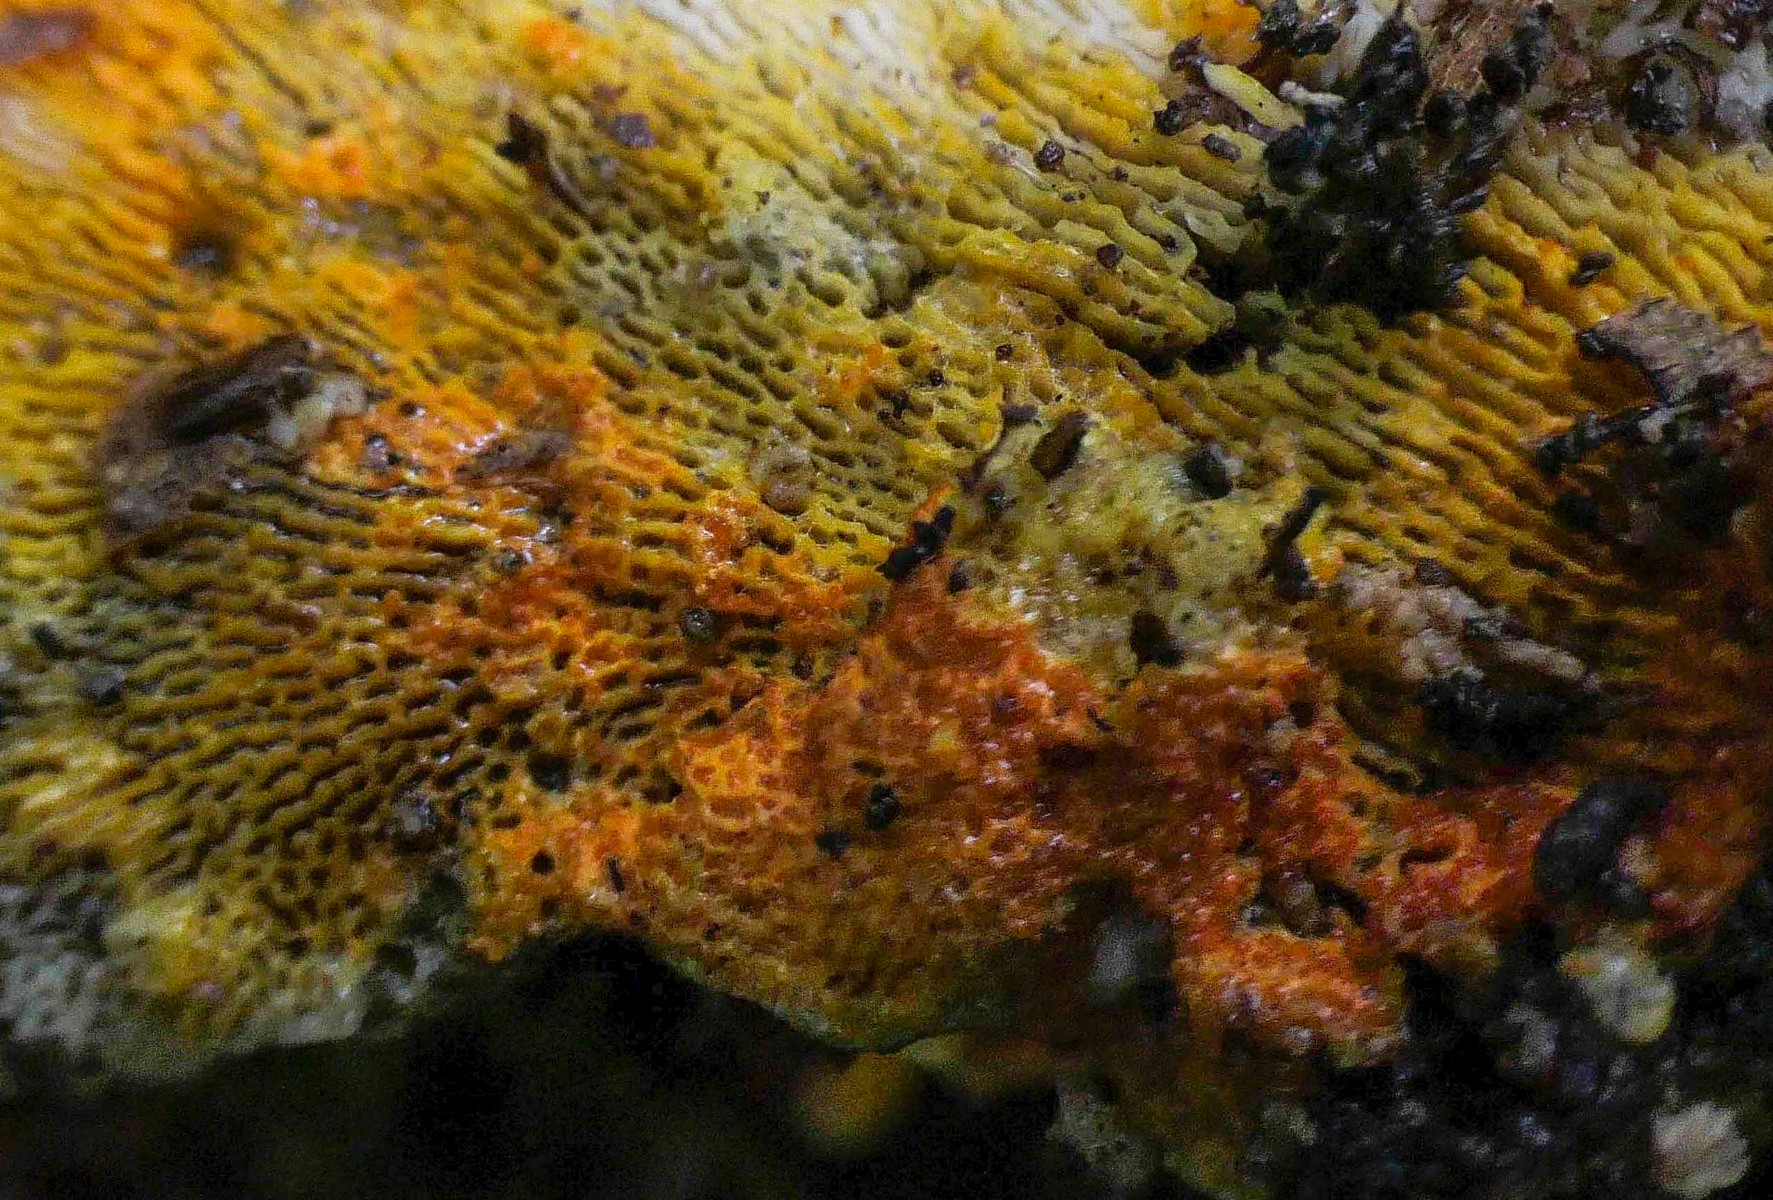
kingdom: Fungi
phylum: Ascomycota
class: Sordariomycetes
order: Hypocreales
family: Hypocreaceae
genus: Hypomyces
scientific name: Hypomyces aurantius
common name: almindelig snylteskorpe
